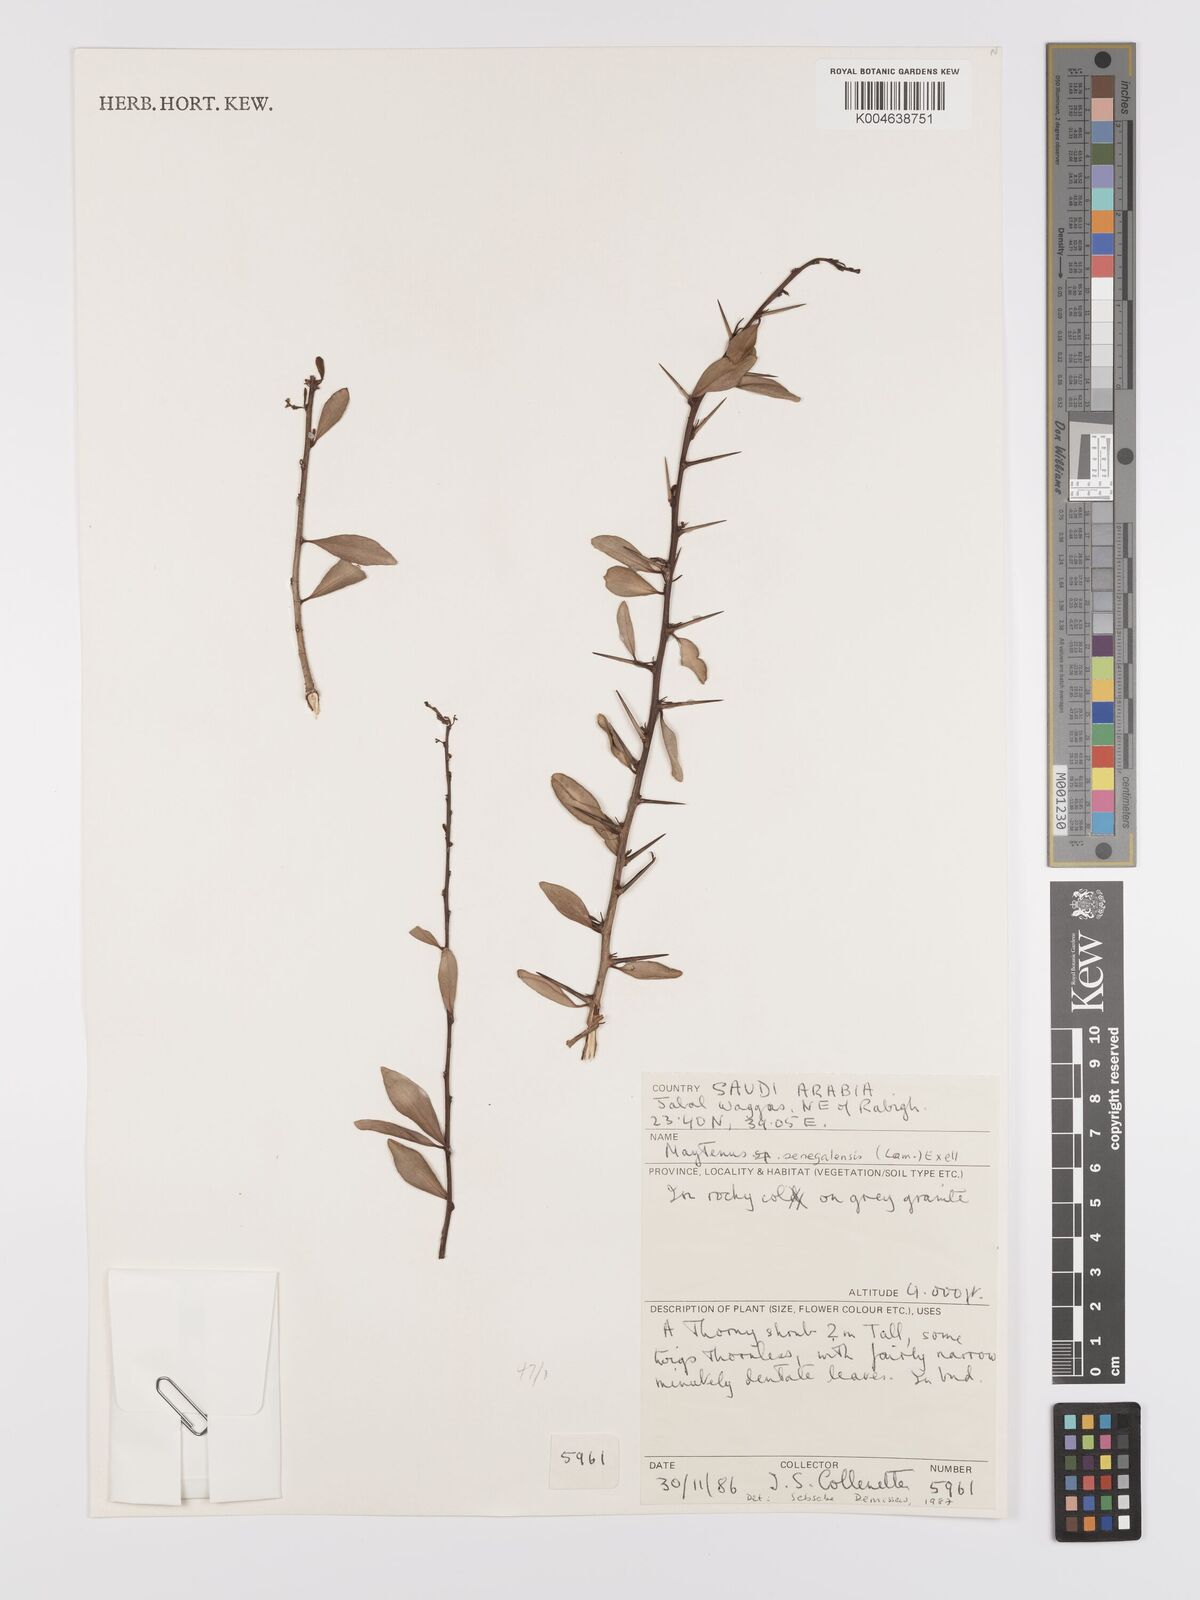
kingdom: Plantae
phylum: Tracheophyta
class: Magnoliopsida
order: Celastrales
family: Celastraceae
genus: Gymnosporia
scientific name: Gymnosporia senegalensis
